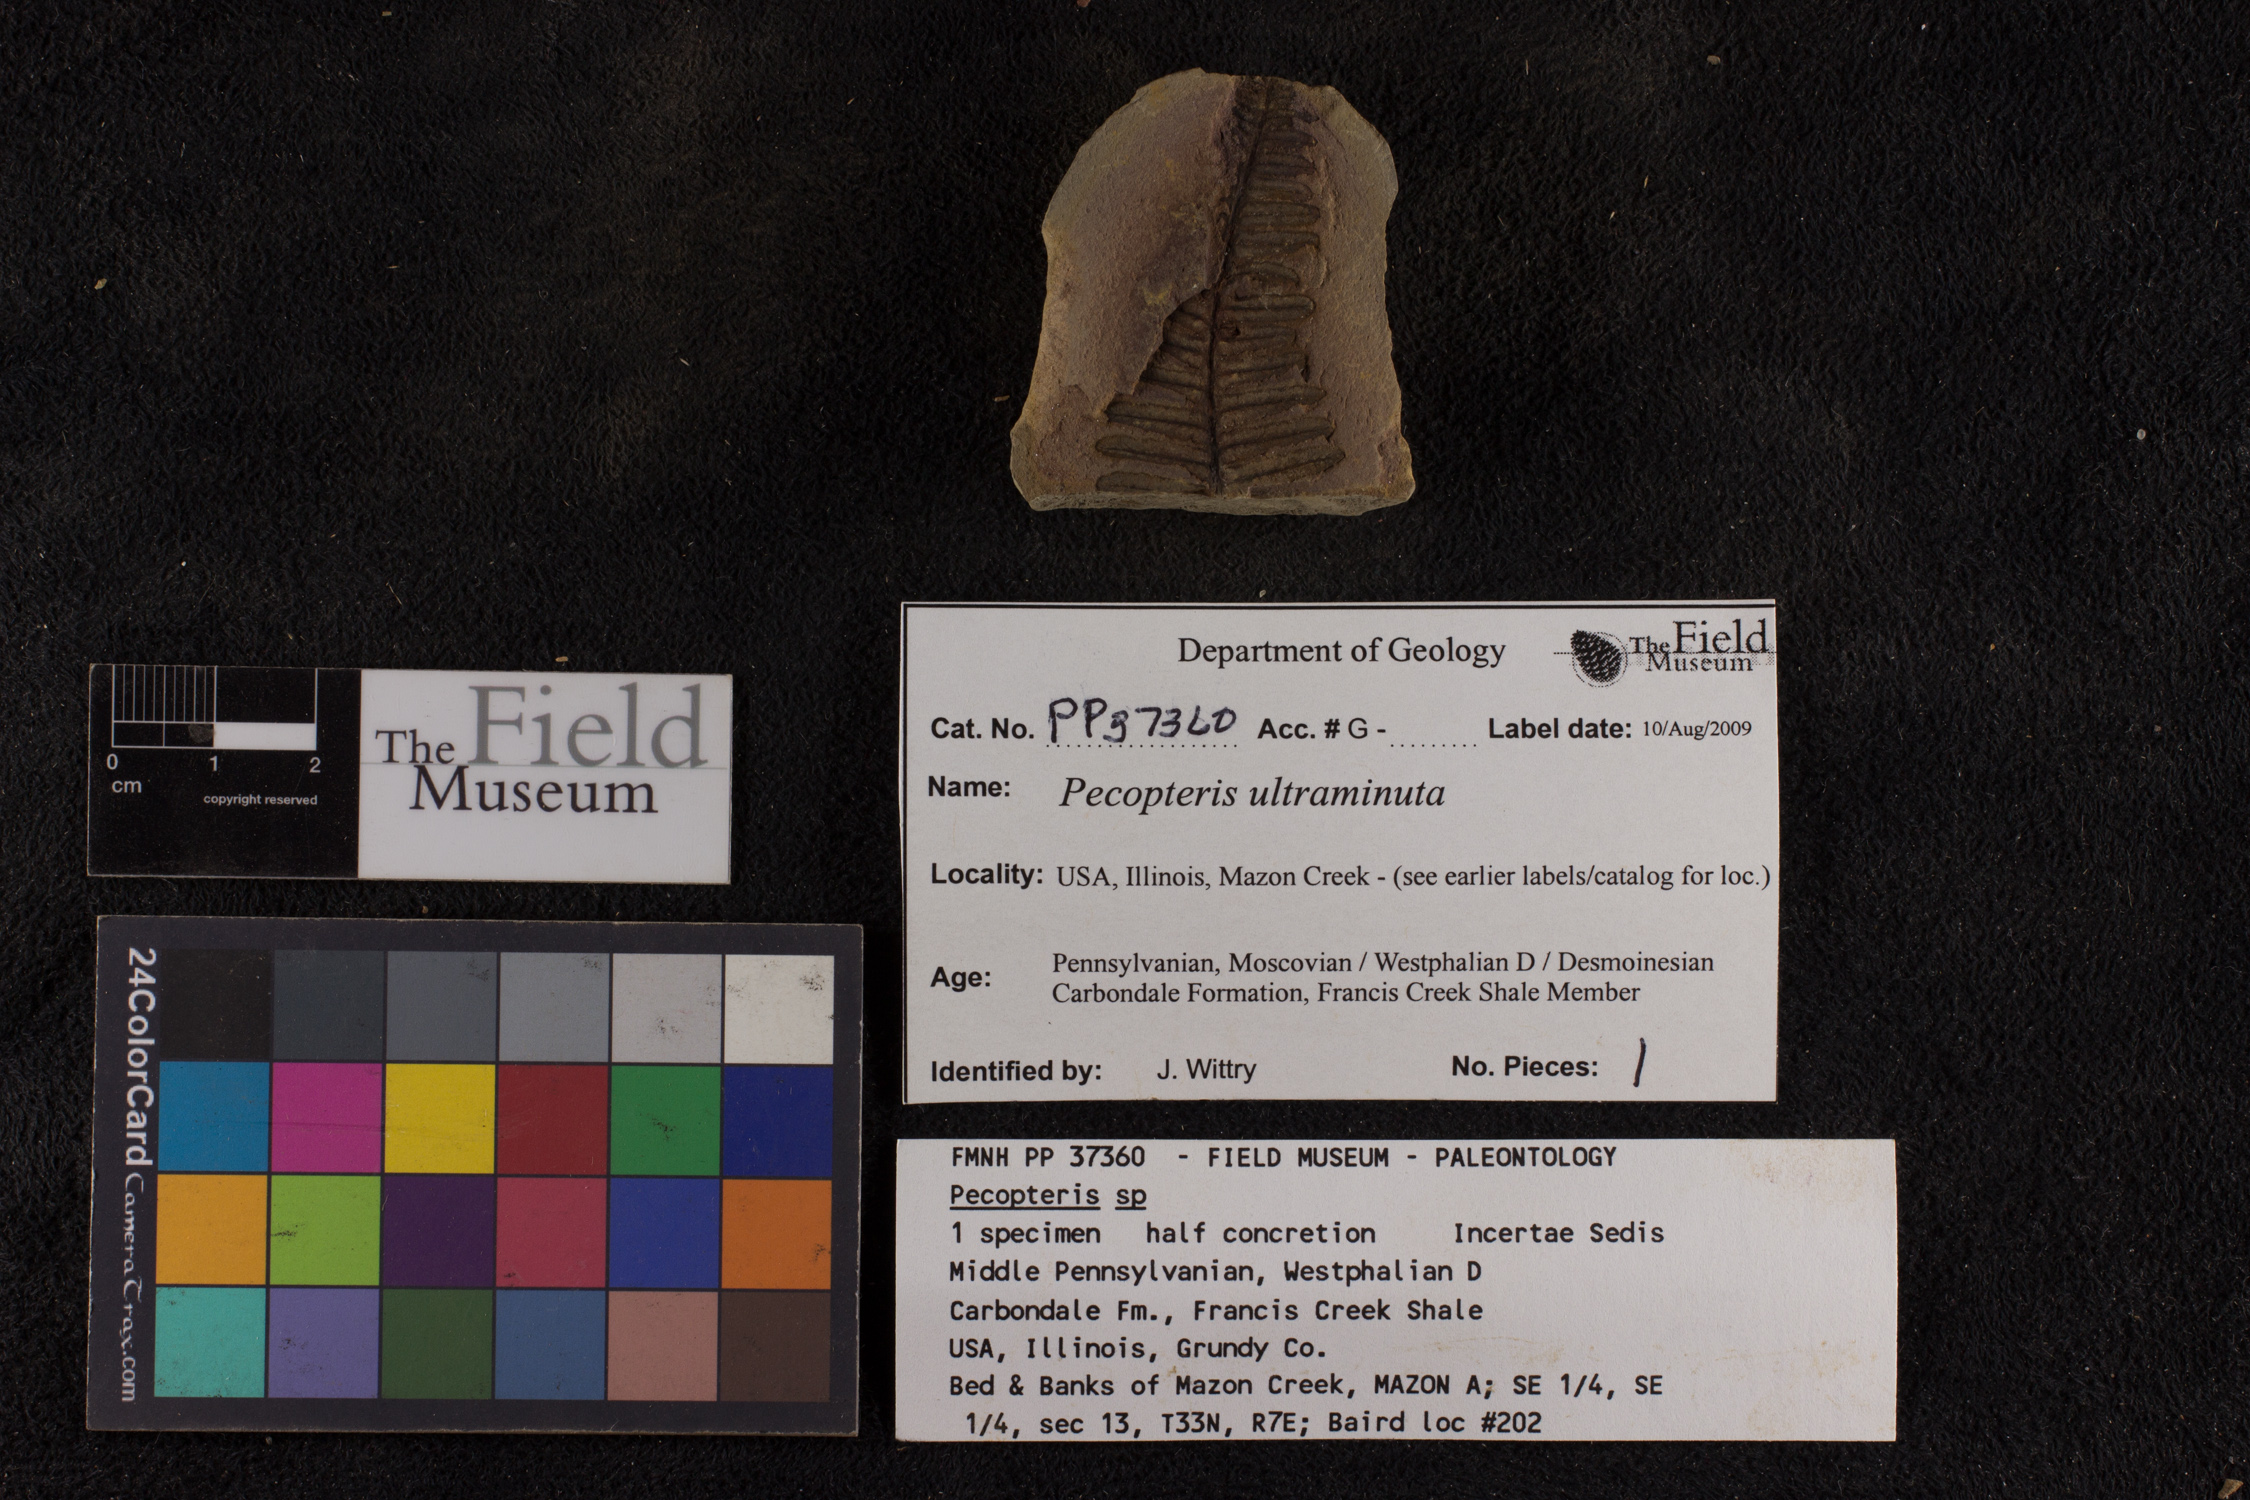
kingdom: Plantae
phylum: Tracheophyta
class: Polypodiopsida
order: Marattiales
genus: Cyathocarpus
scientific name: Cyathocarpus
